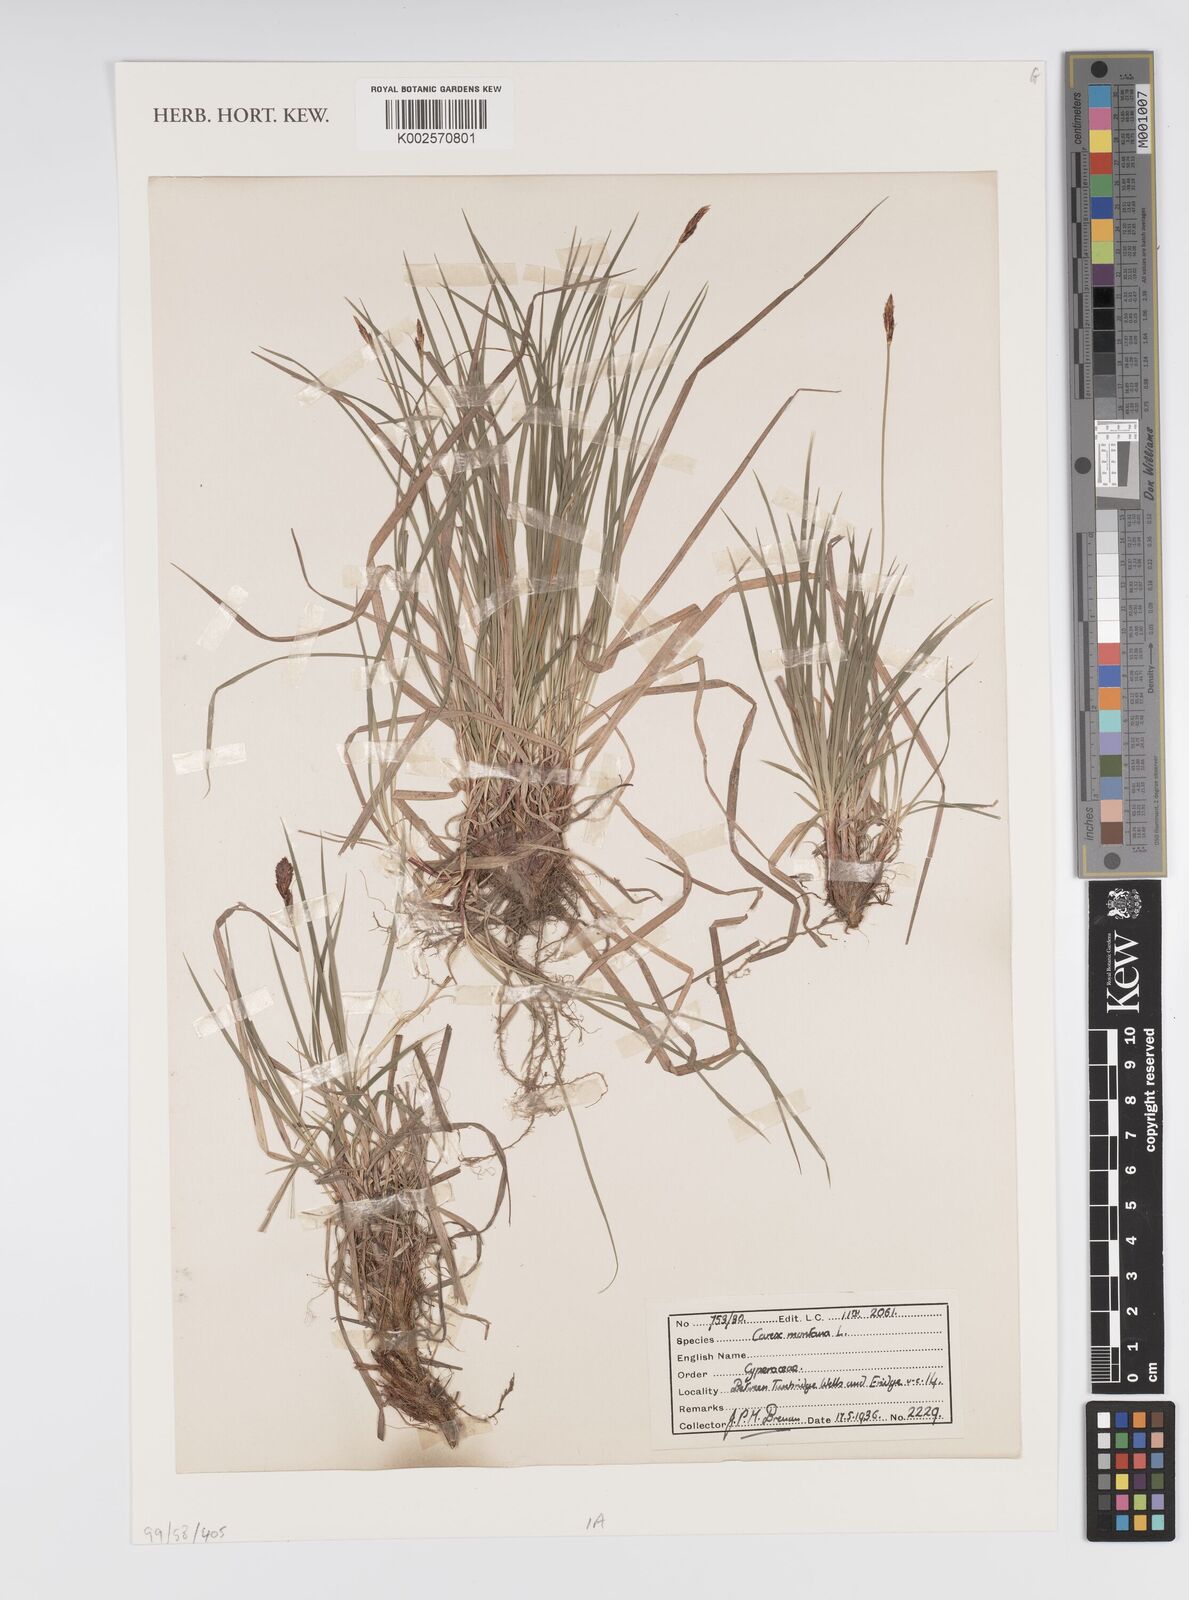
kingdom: Plantae
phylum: Tracheophyta
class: Liliopsida
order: Poales
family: Cyperaceae
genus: Carex
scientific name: Carex montana
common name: Soft-leaved sedge
